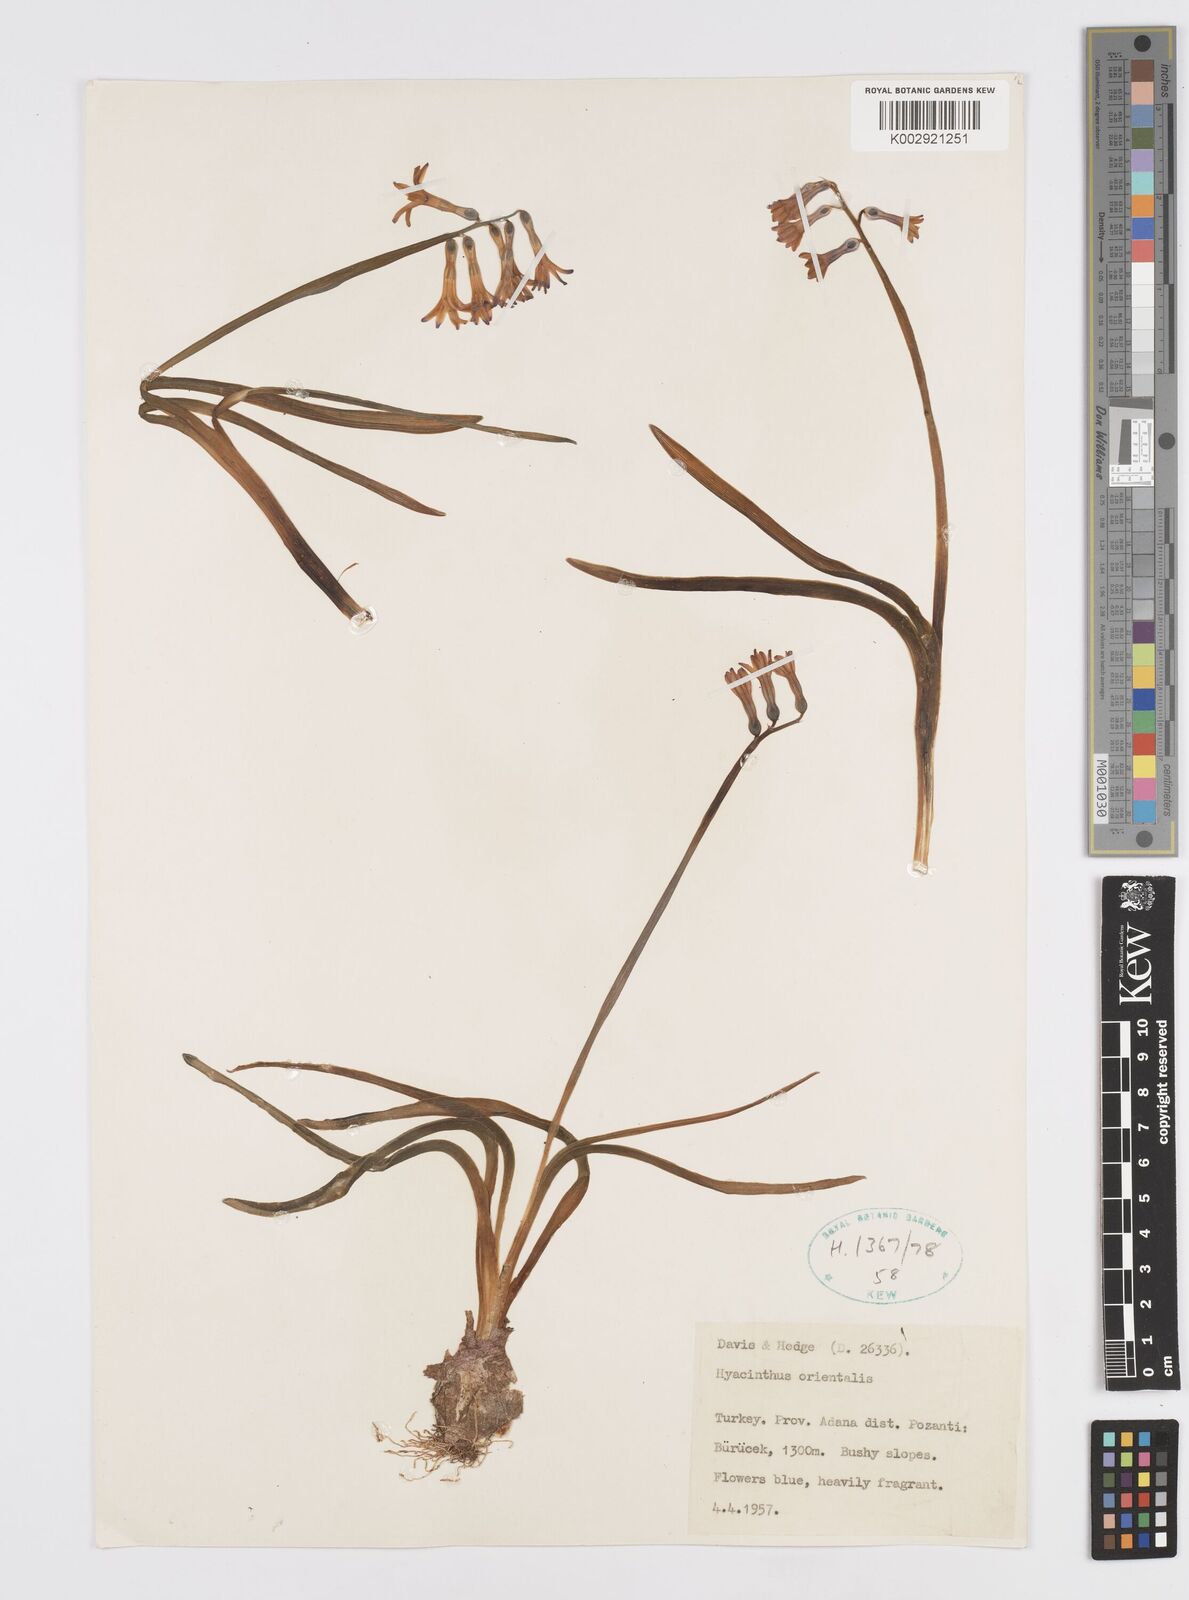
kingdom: Plantae
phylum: Tracheophyta
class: Liliopsida
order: Asparagales
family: Asparagaceae
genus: Hyacinthus
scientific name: Hyacinthus orientalis
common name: Hyacinth
